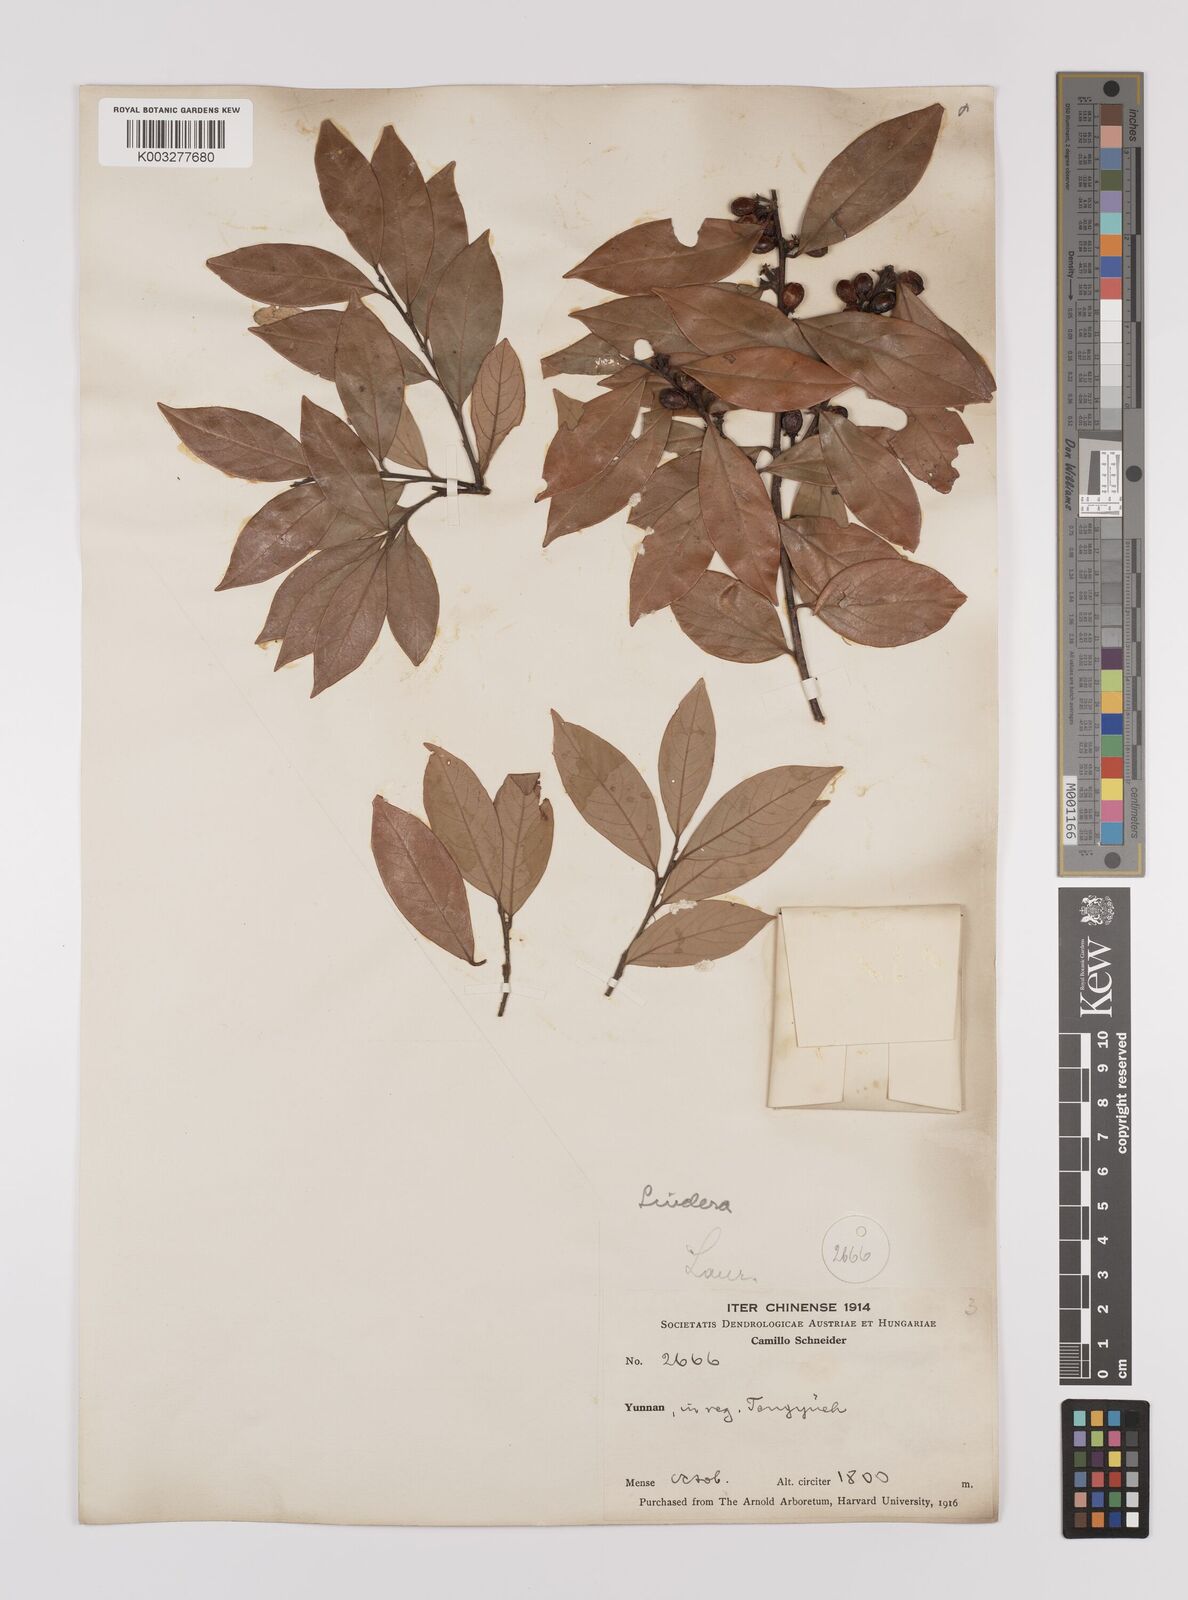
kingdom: Plantae
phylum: Tracheophyta
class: Magnoliopsida
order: Laurales
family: Lauraceae
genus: Litsea
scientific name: Litsea rotundifolia
